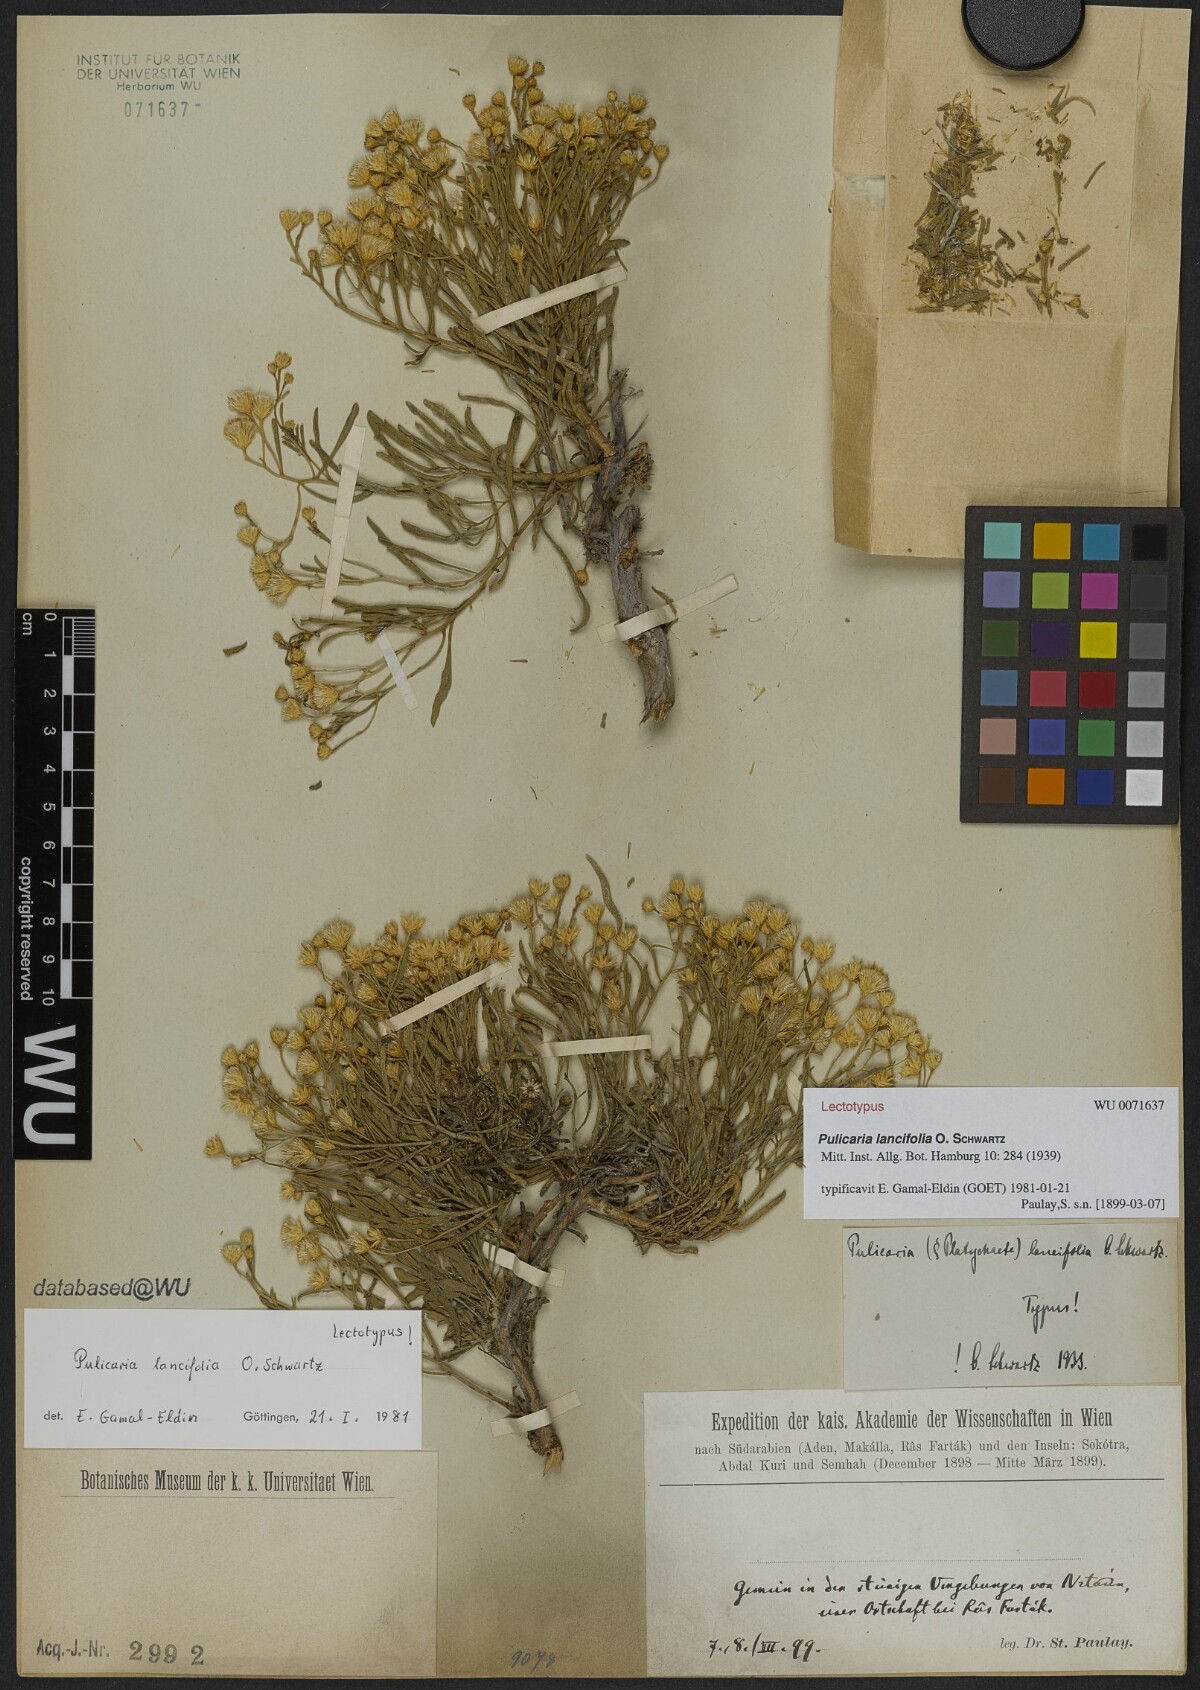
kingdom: Plantae
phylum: Tracheophyta
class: Magnoliopsida
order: Asterales
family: Asteraceae
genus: Pulicaria
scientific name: Pulicaria lanceifolia
